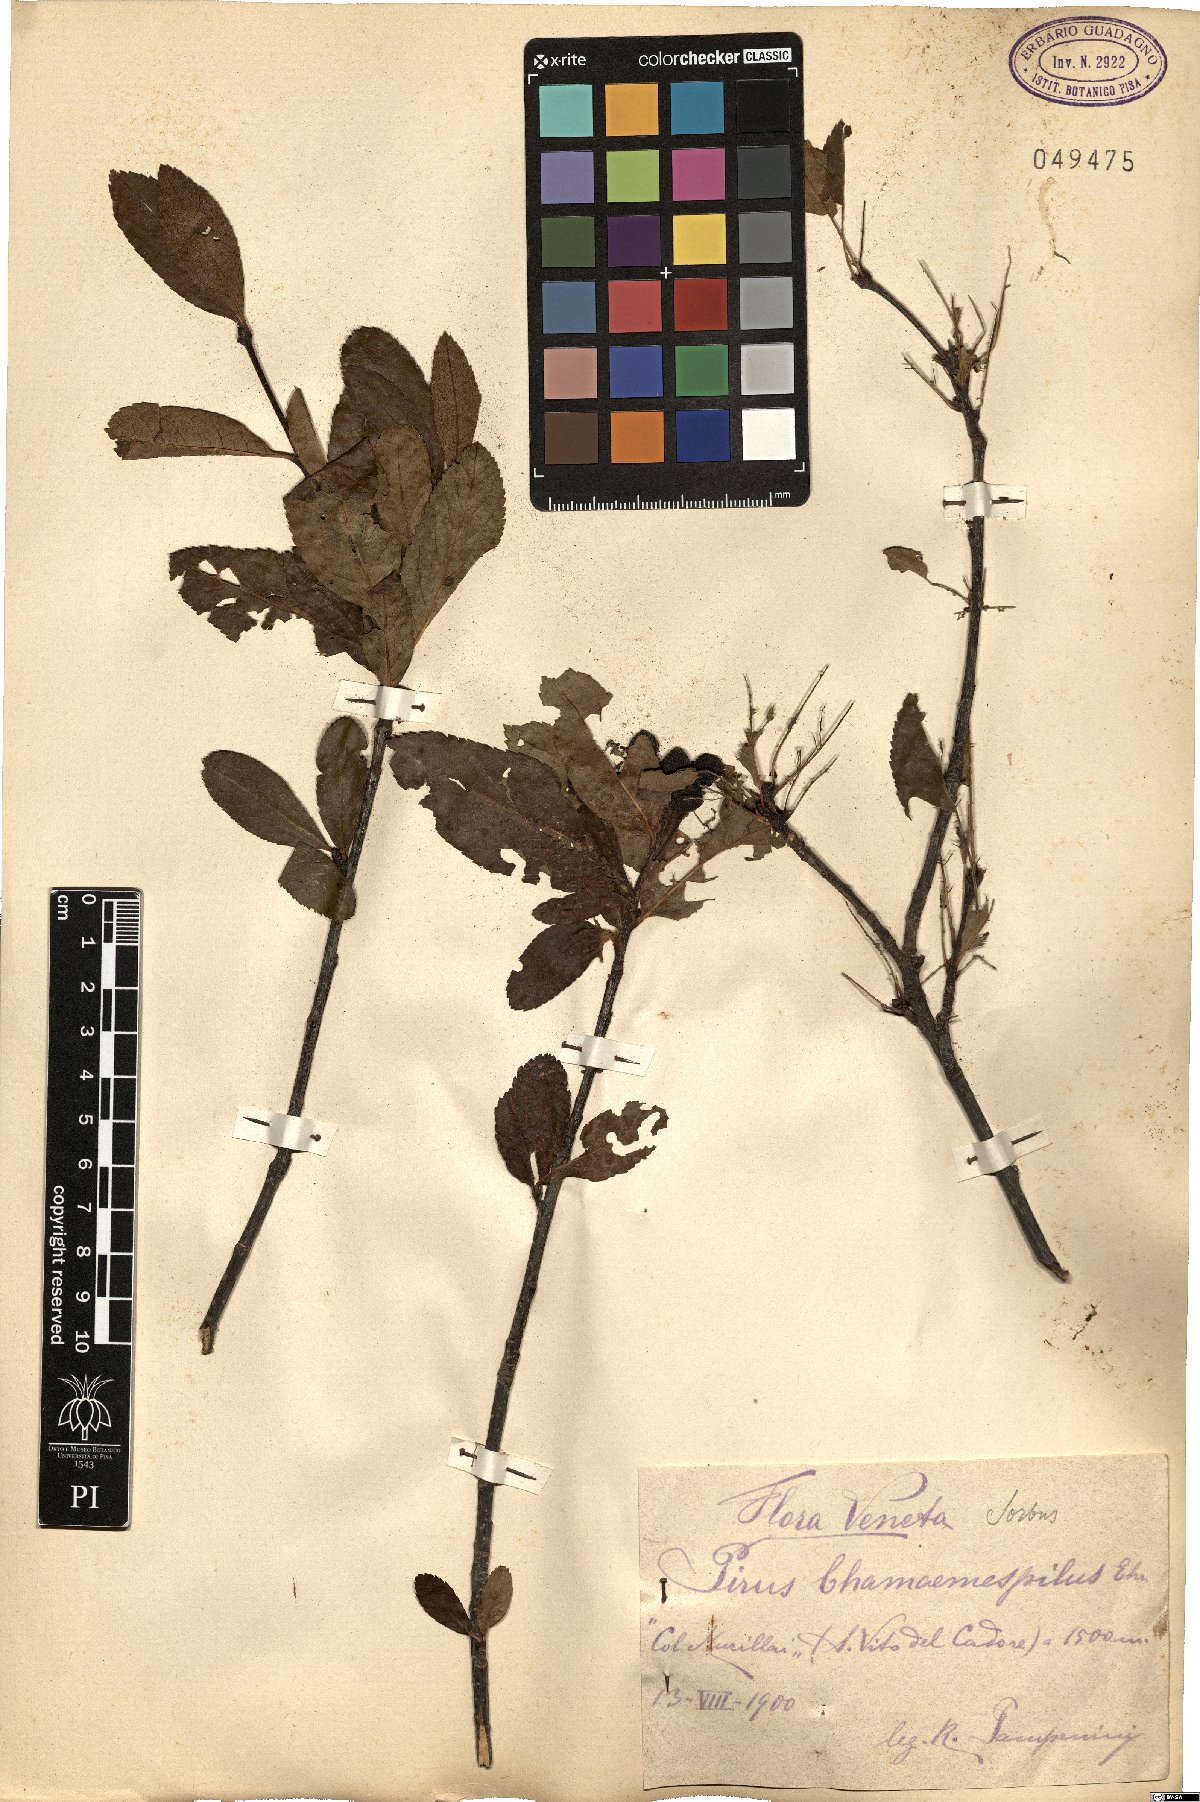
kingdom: Plantae
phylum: Tracheophyta
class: Magnoliopsida
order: Rosales
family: Rosaceae
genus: Chamaemespilus
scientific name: Chamaemespilus alpina
